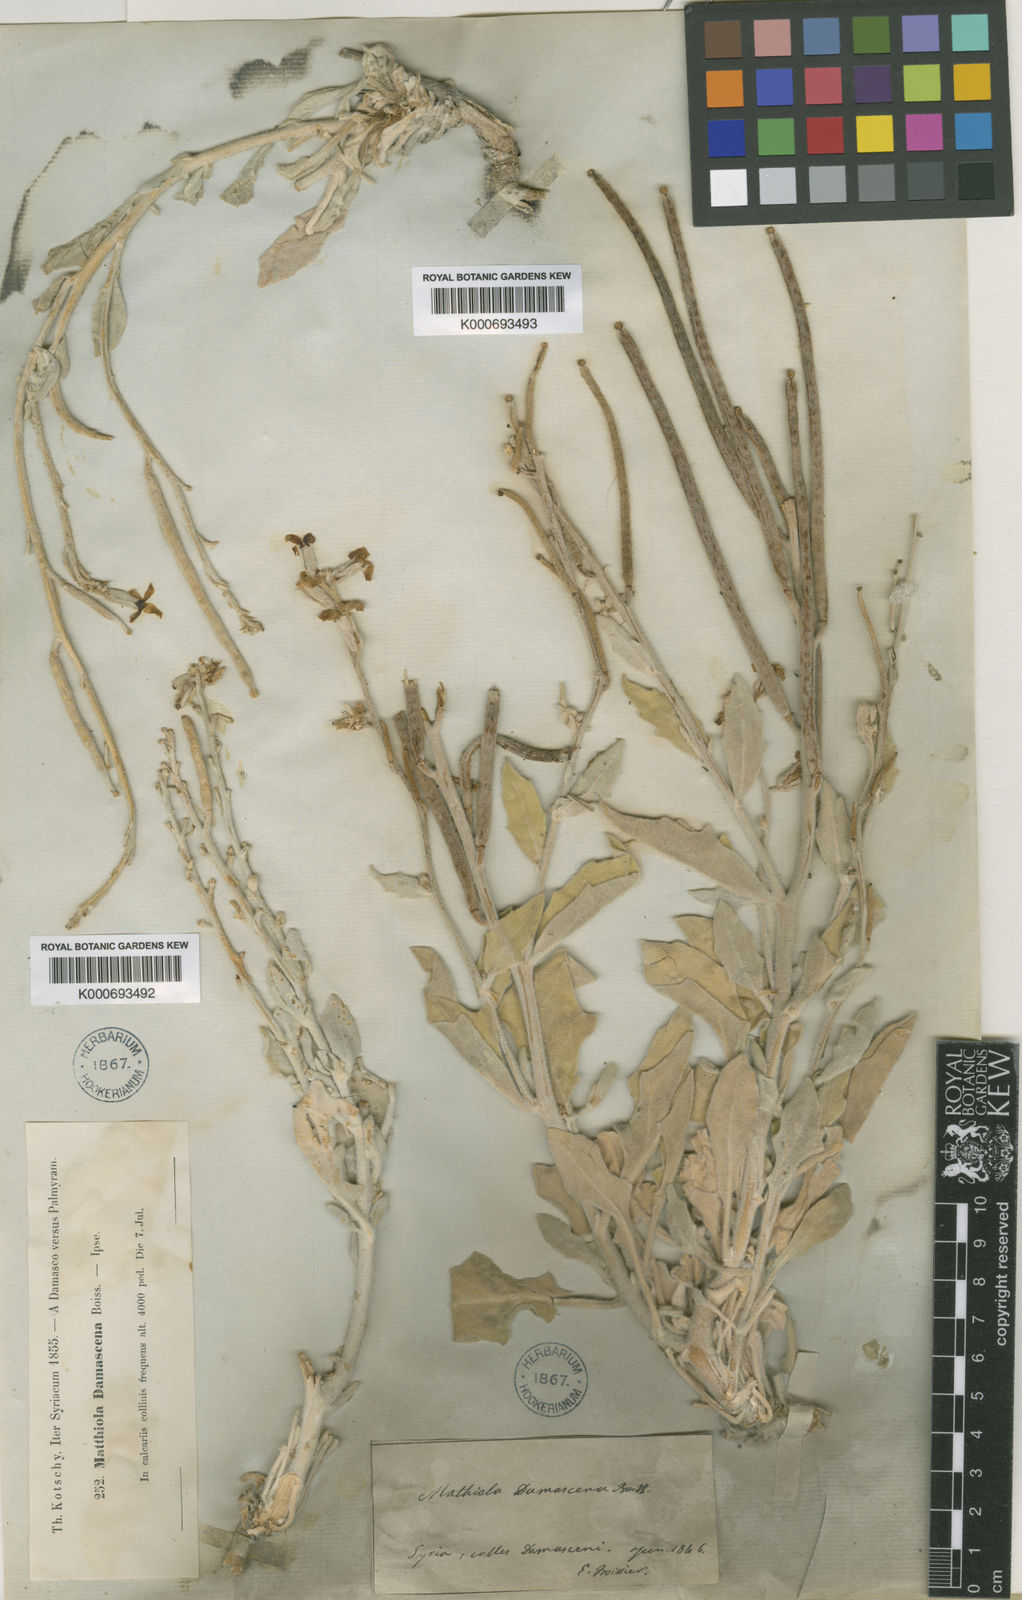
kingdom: Plantae
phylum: Tracheophyta
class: Magnoliopsida
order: Brassicales
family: Brassicaceae
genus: Matthiola
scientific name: Matthiola damascena
